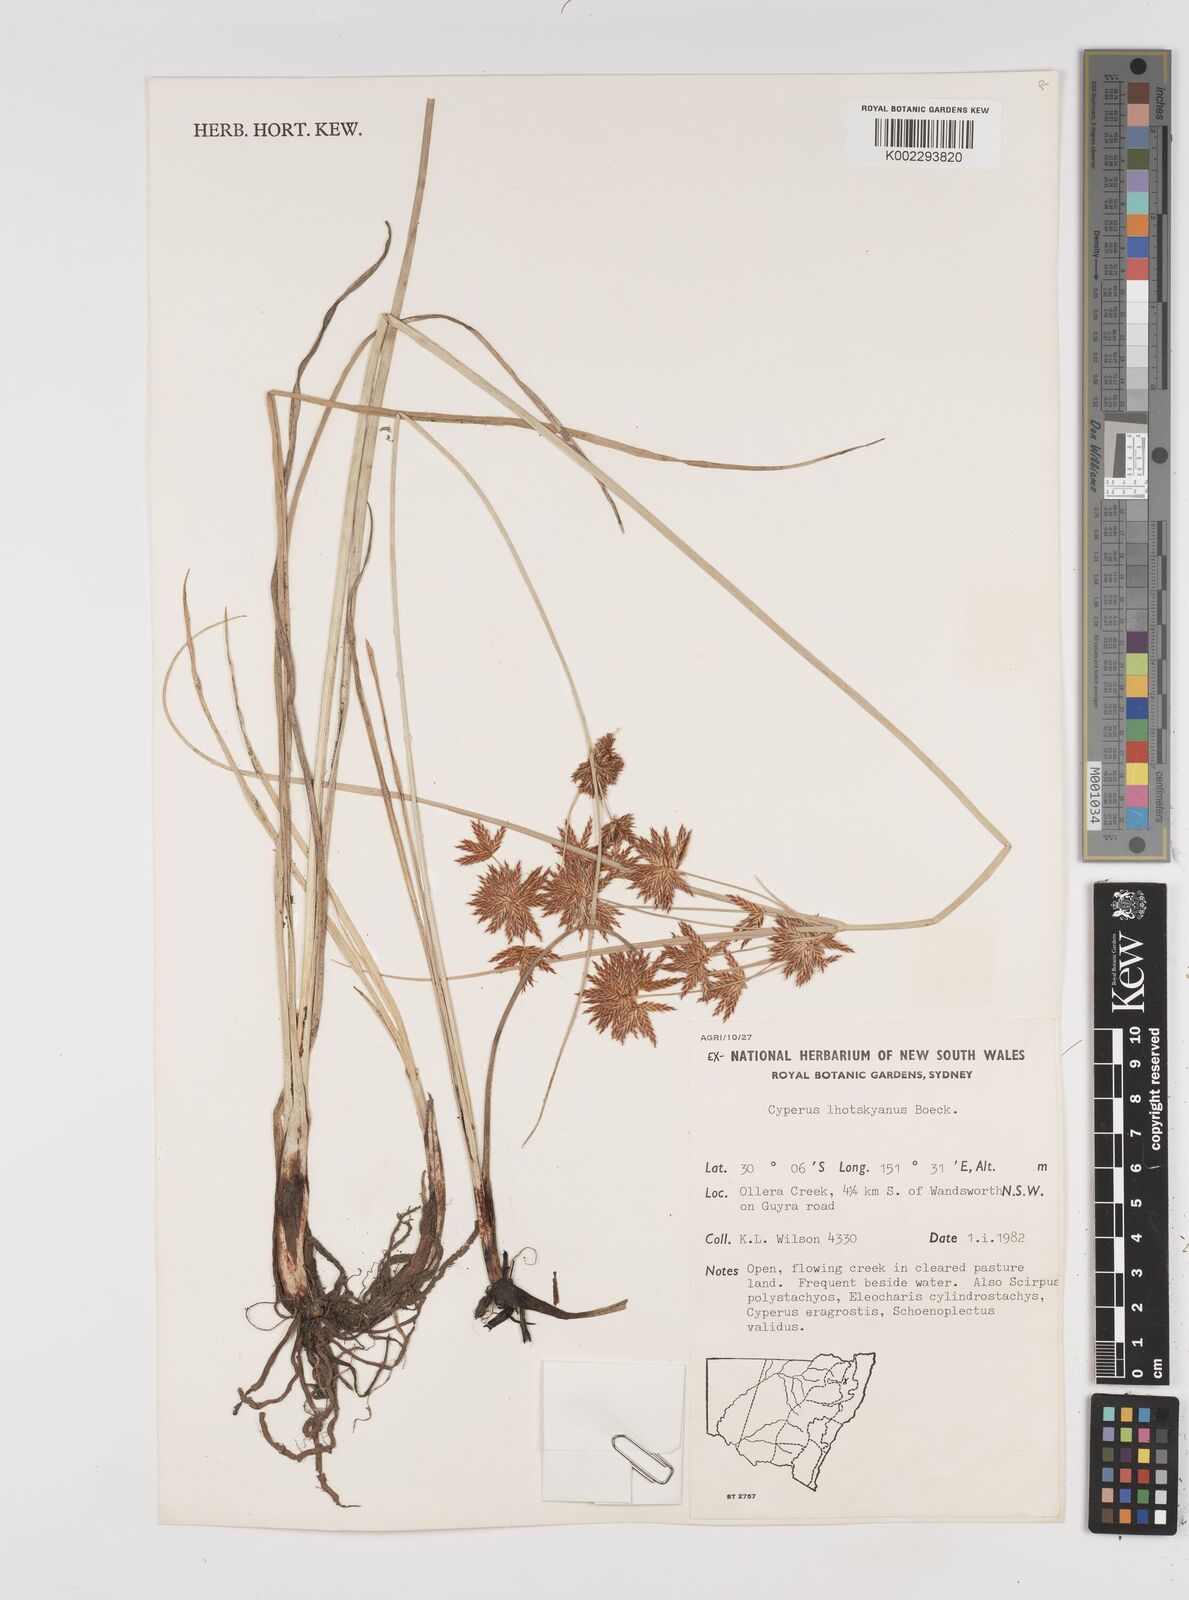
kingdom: Plantae
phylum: Tracheophyta
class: Liliopsida
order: Poales
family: Cyperaceae
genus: Cyperus
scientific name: Cyperus lhotskyanus
